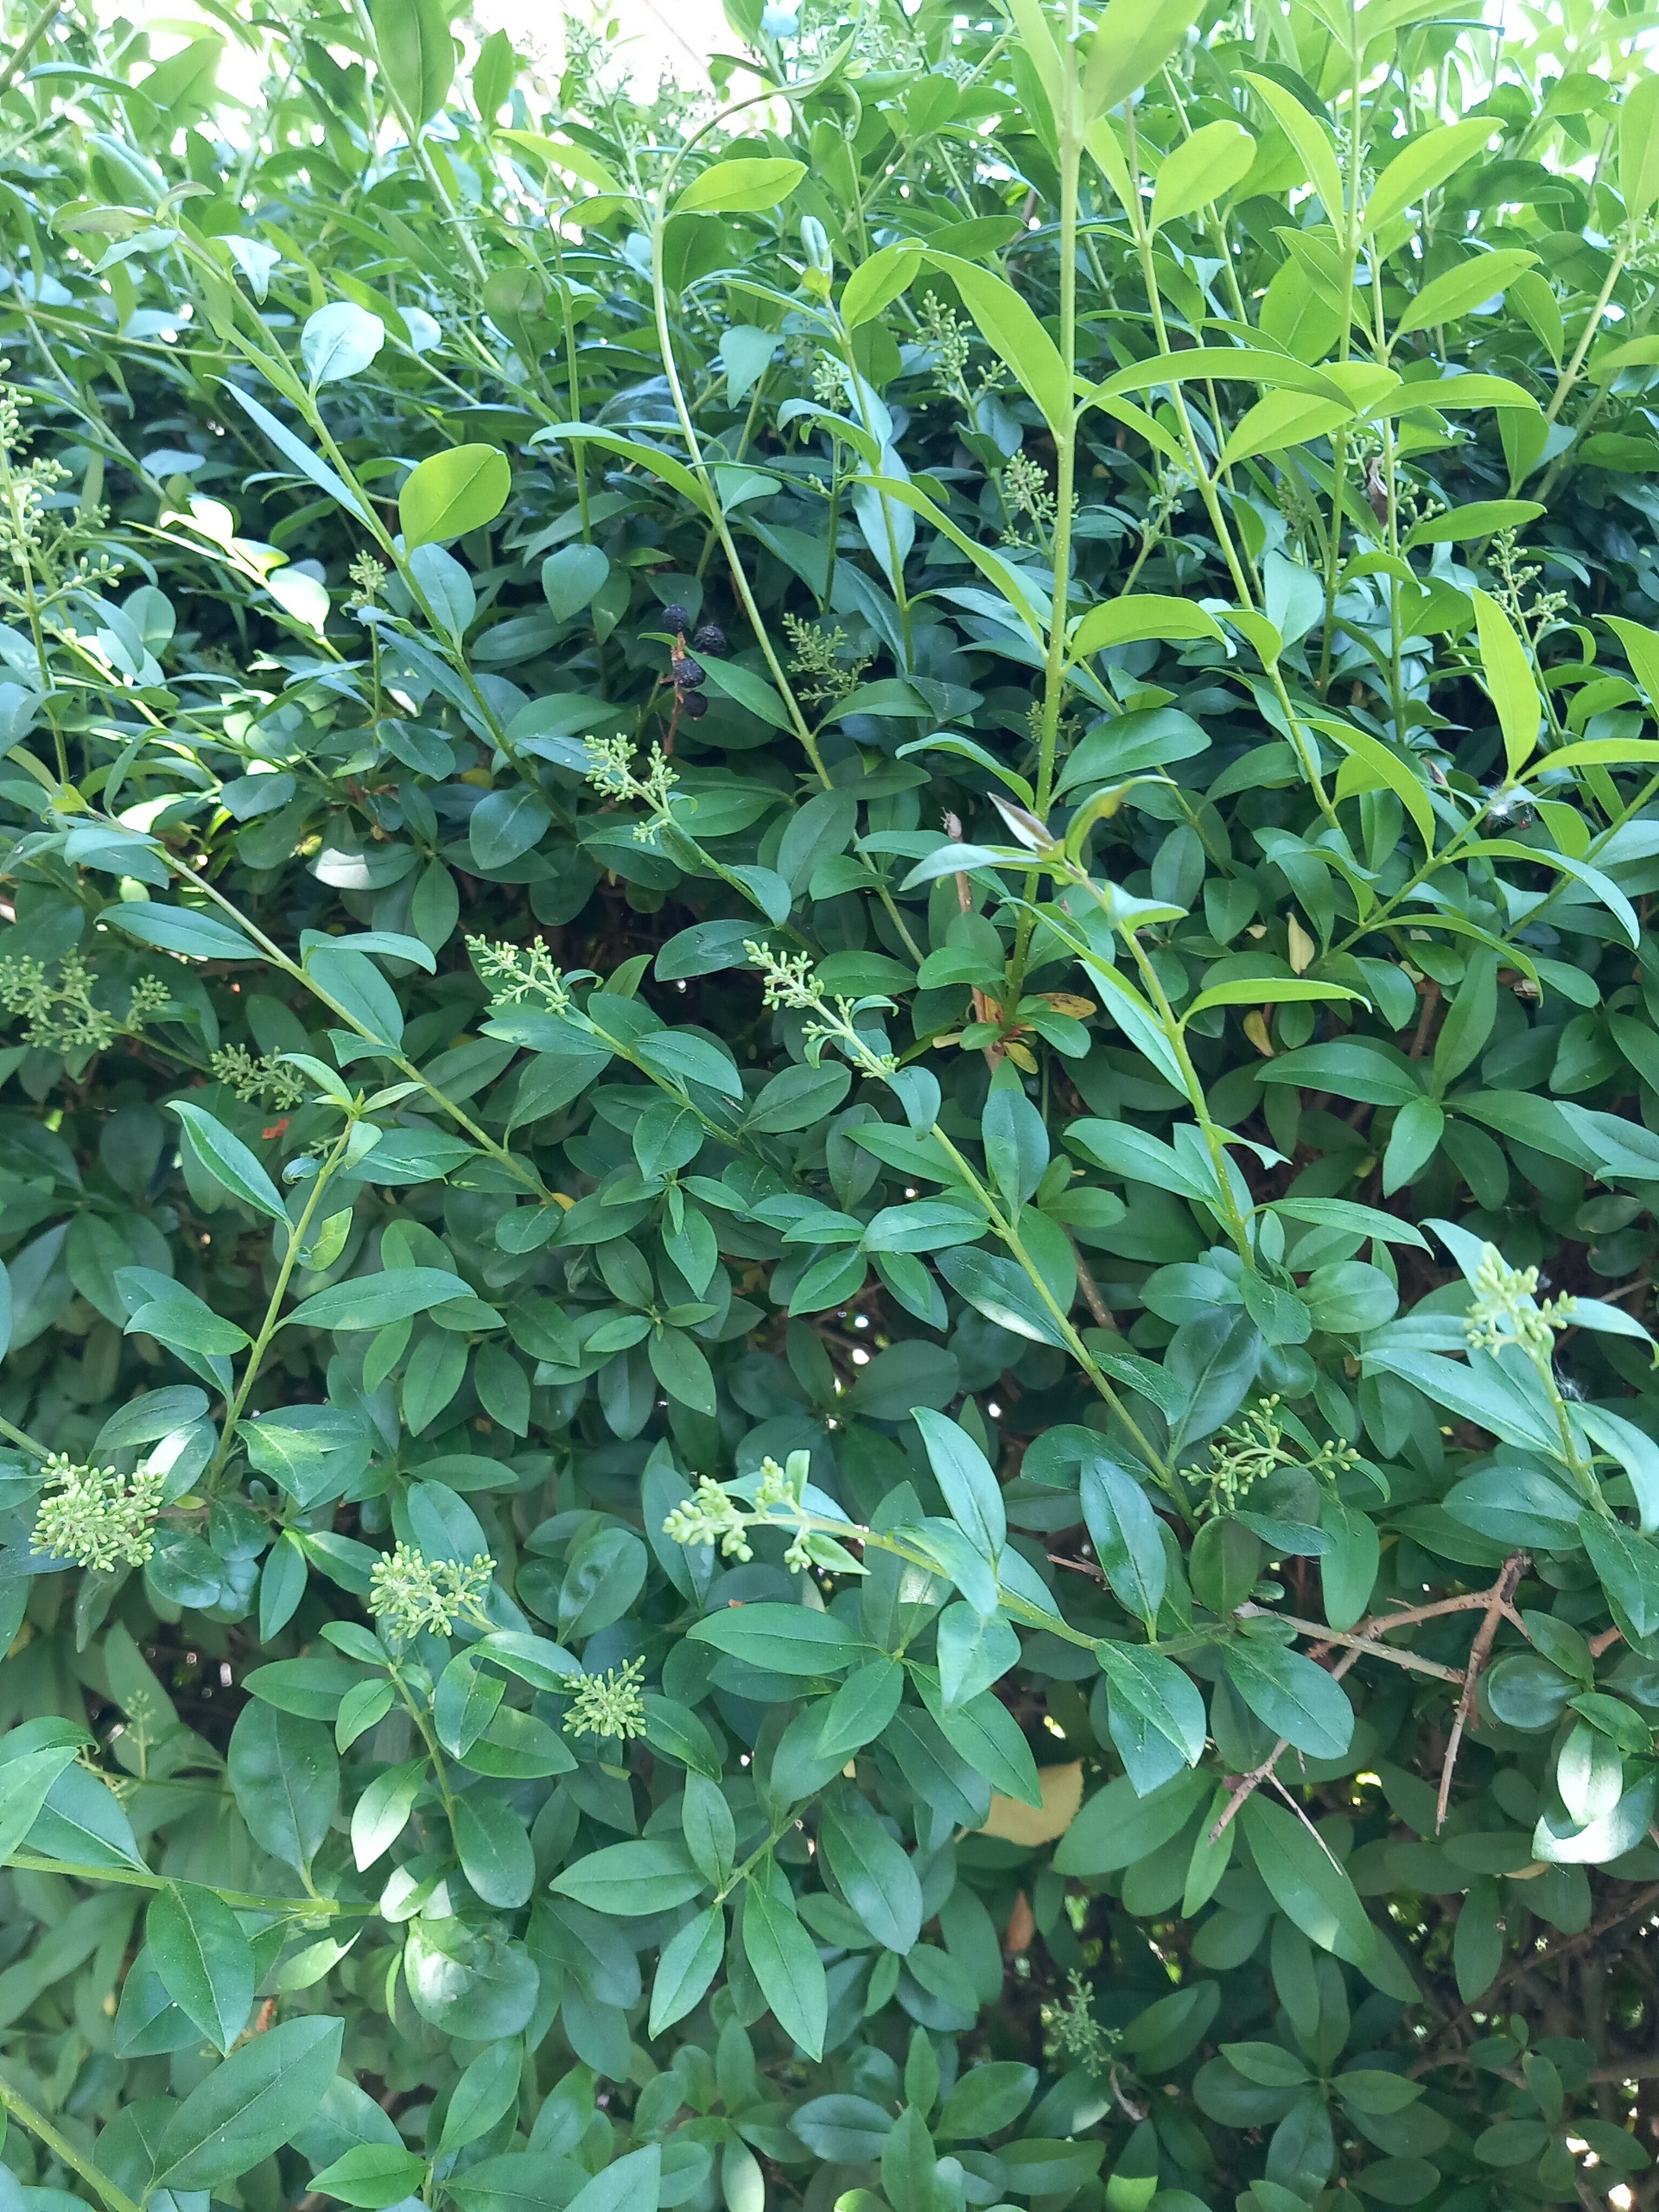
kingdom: Plantae
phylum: Tracheophyta
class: Magnoliopsida
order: Lamiales
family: Oleaceae
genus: Ligustrum
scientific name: Ligustrum vulgare
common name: Liguster
